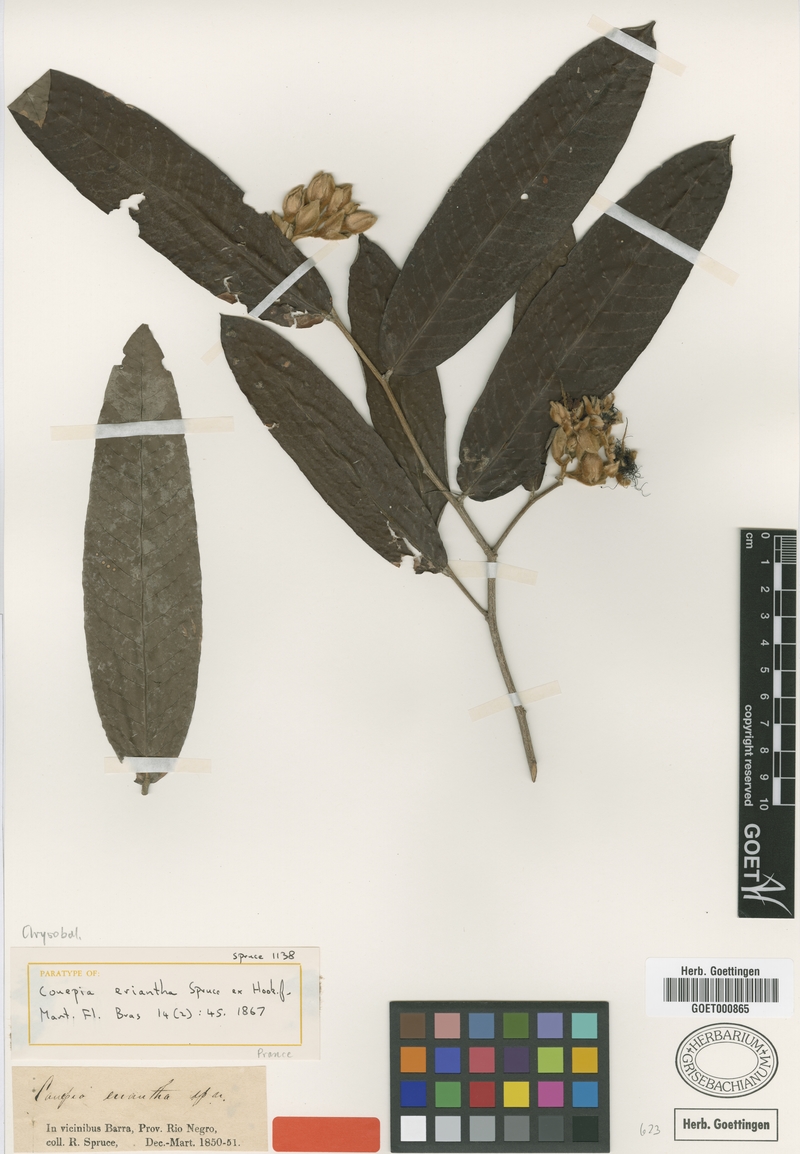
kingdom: Plantae
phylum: Tracheophyta
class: Magnoliopsida
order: Malpighiales
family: Chrysobalanaceae
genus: Couepia
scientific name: Couepia eriantha
